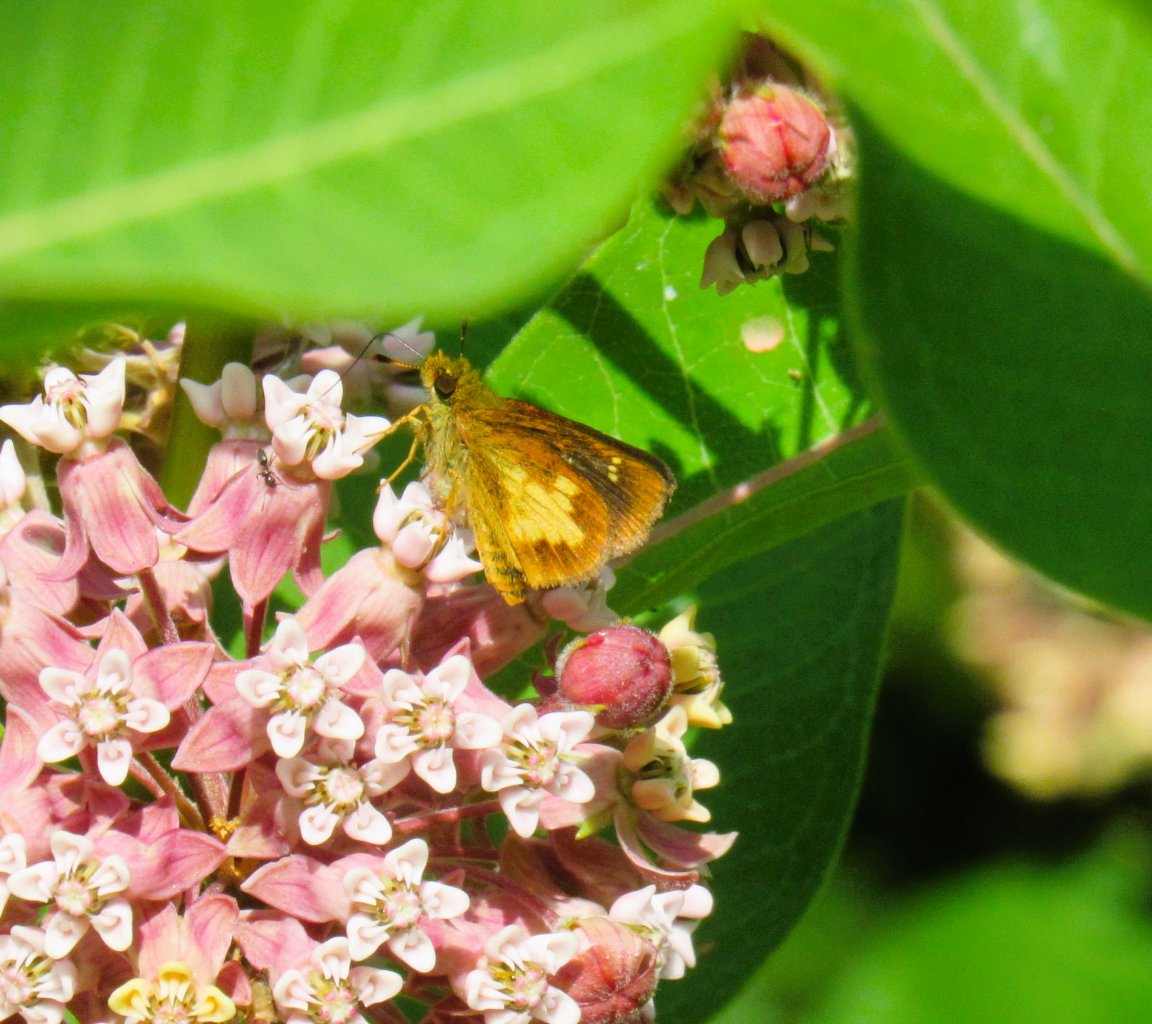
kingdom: Animalia
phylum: Arthropoda
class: Insecta
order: Lepidoptera
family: Hesperiidae
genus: Poanes
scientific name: Poanes massasoit
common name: Mulberry Wing
